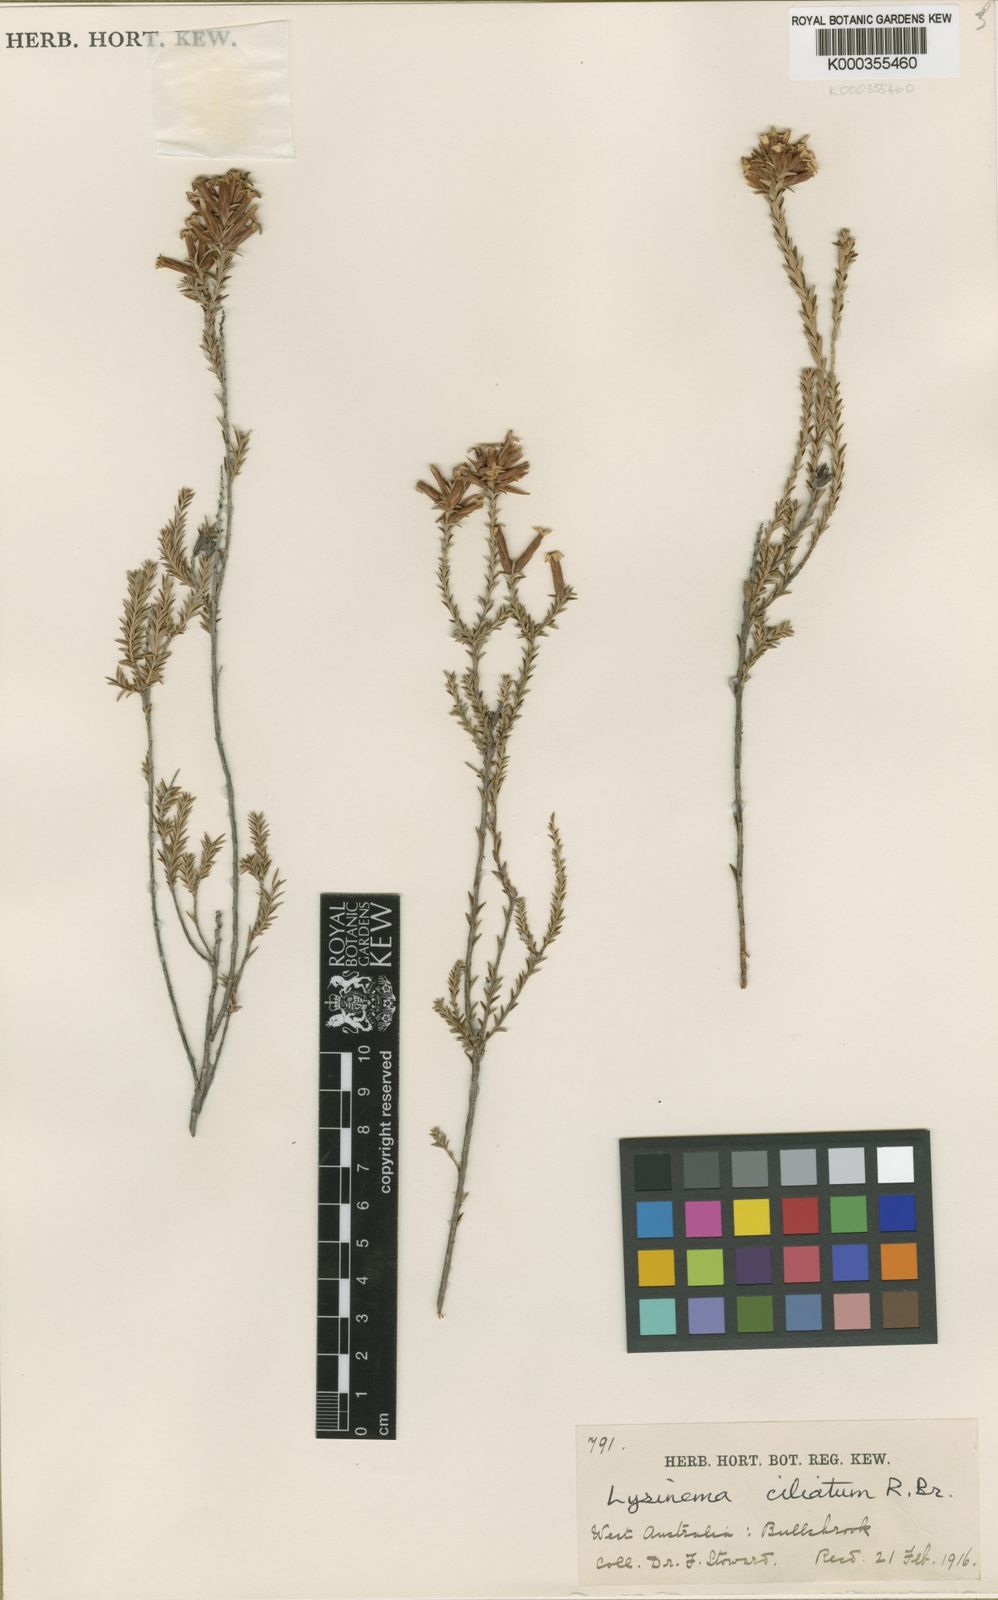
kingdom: Plantae
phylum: Tracheophyta
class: Magnoliopsida
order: Ericales
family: Ericaceae
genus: Lysinema
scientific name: Lysinema ciliatum
